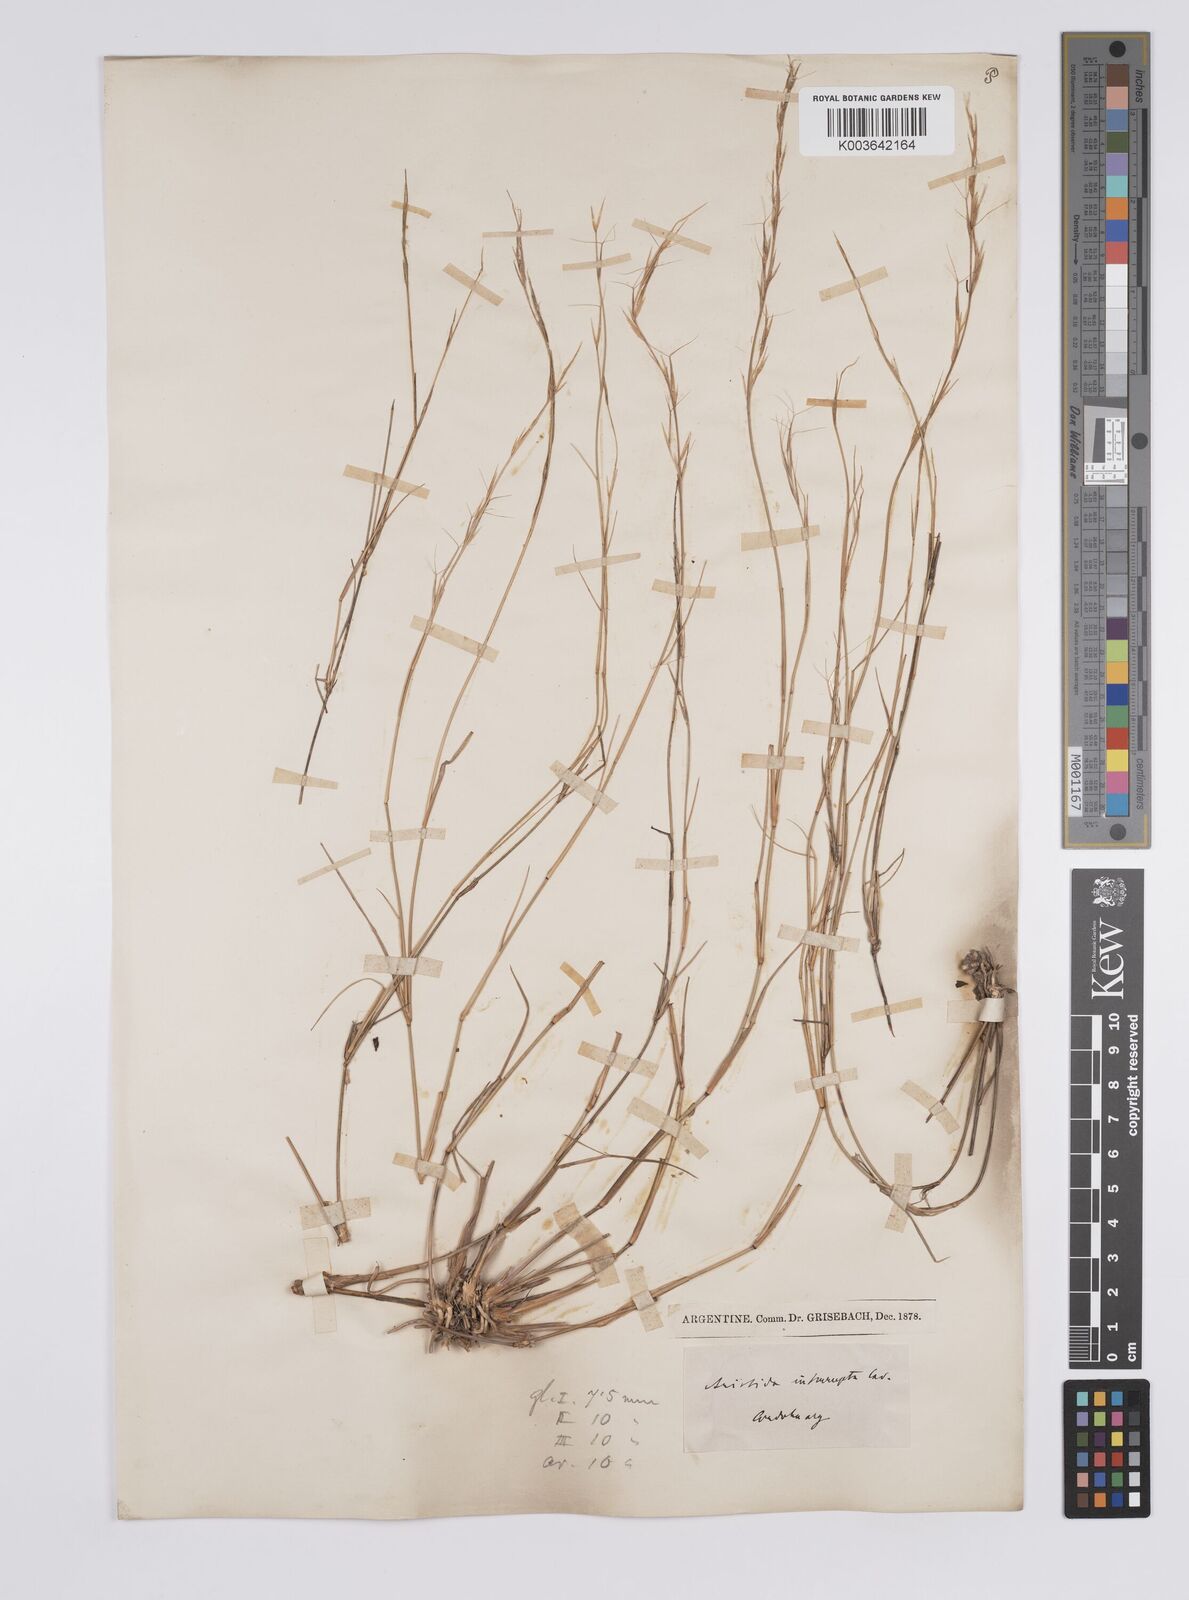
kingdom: Plantae
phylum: Tracheophyta
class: Liliopsida
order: Poales
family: Poaceae
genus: Aristida
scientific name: Aristida
